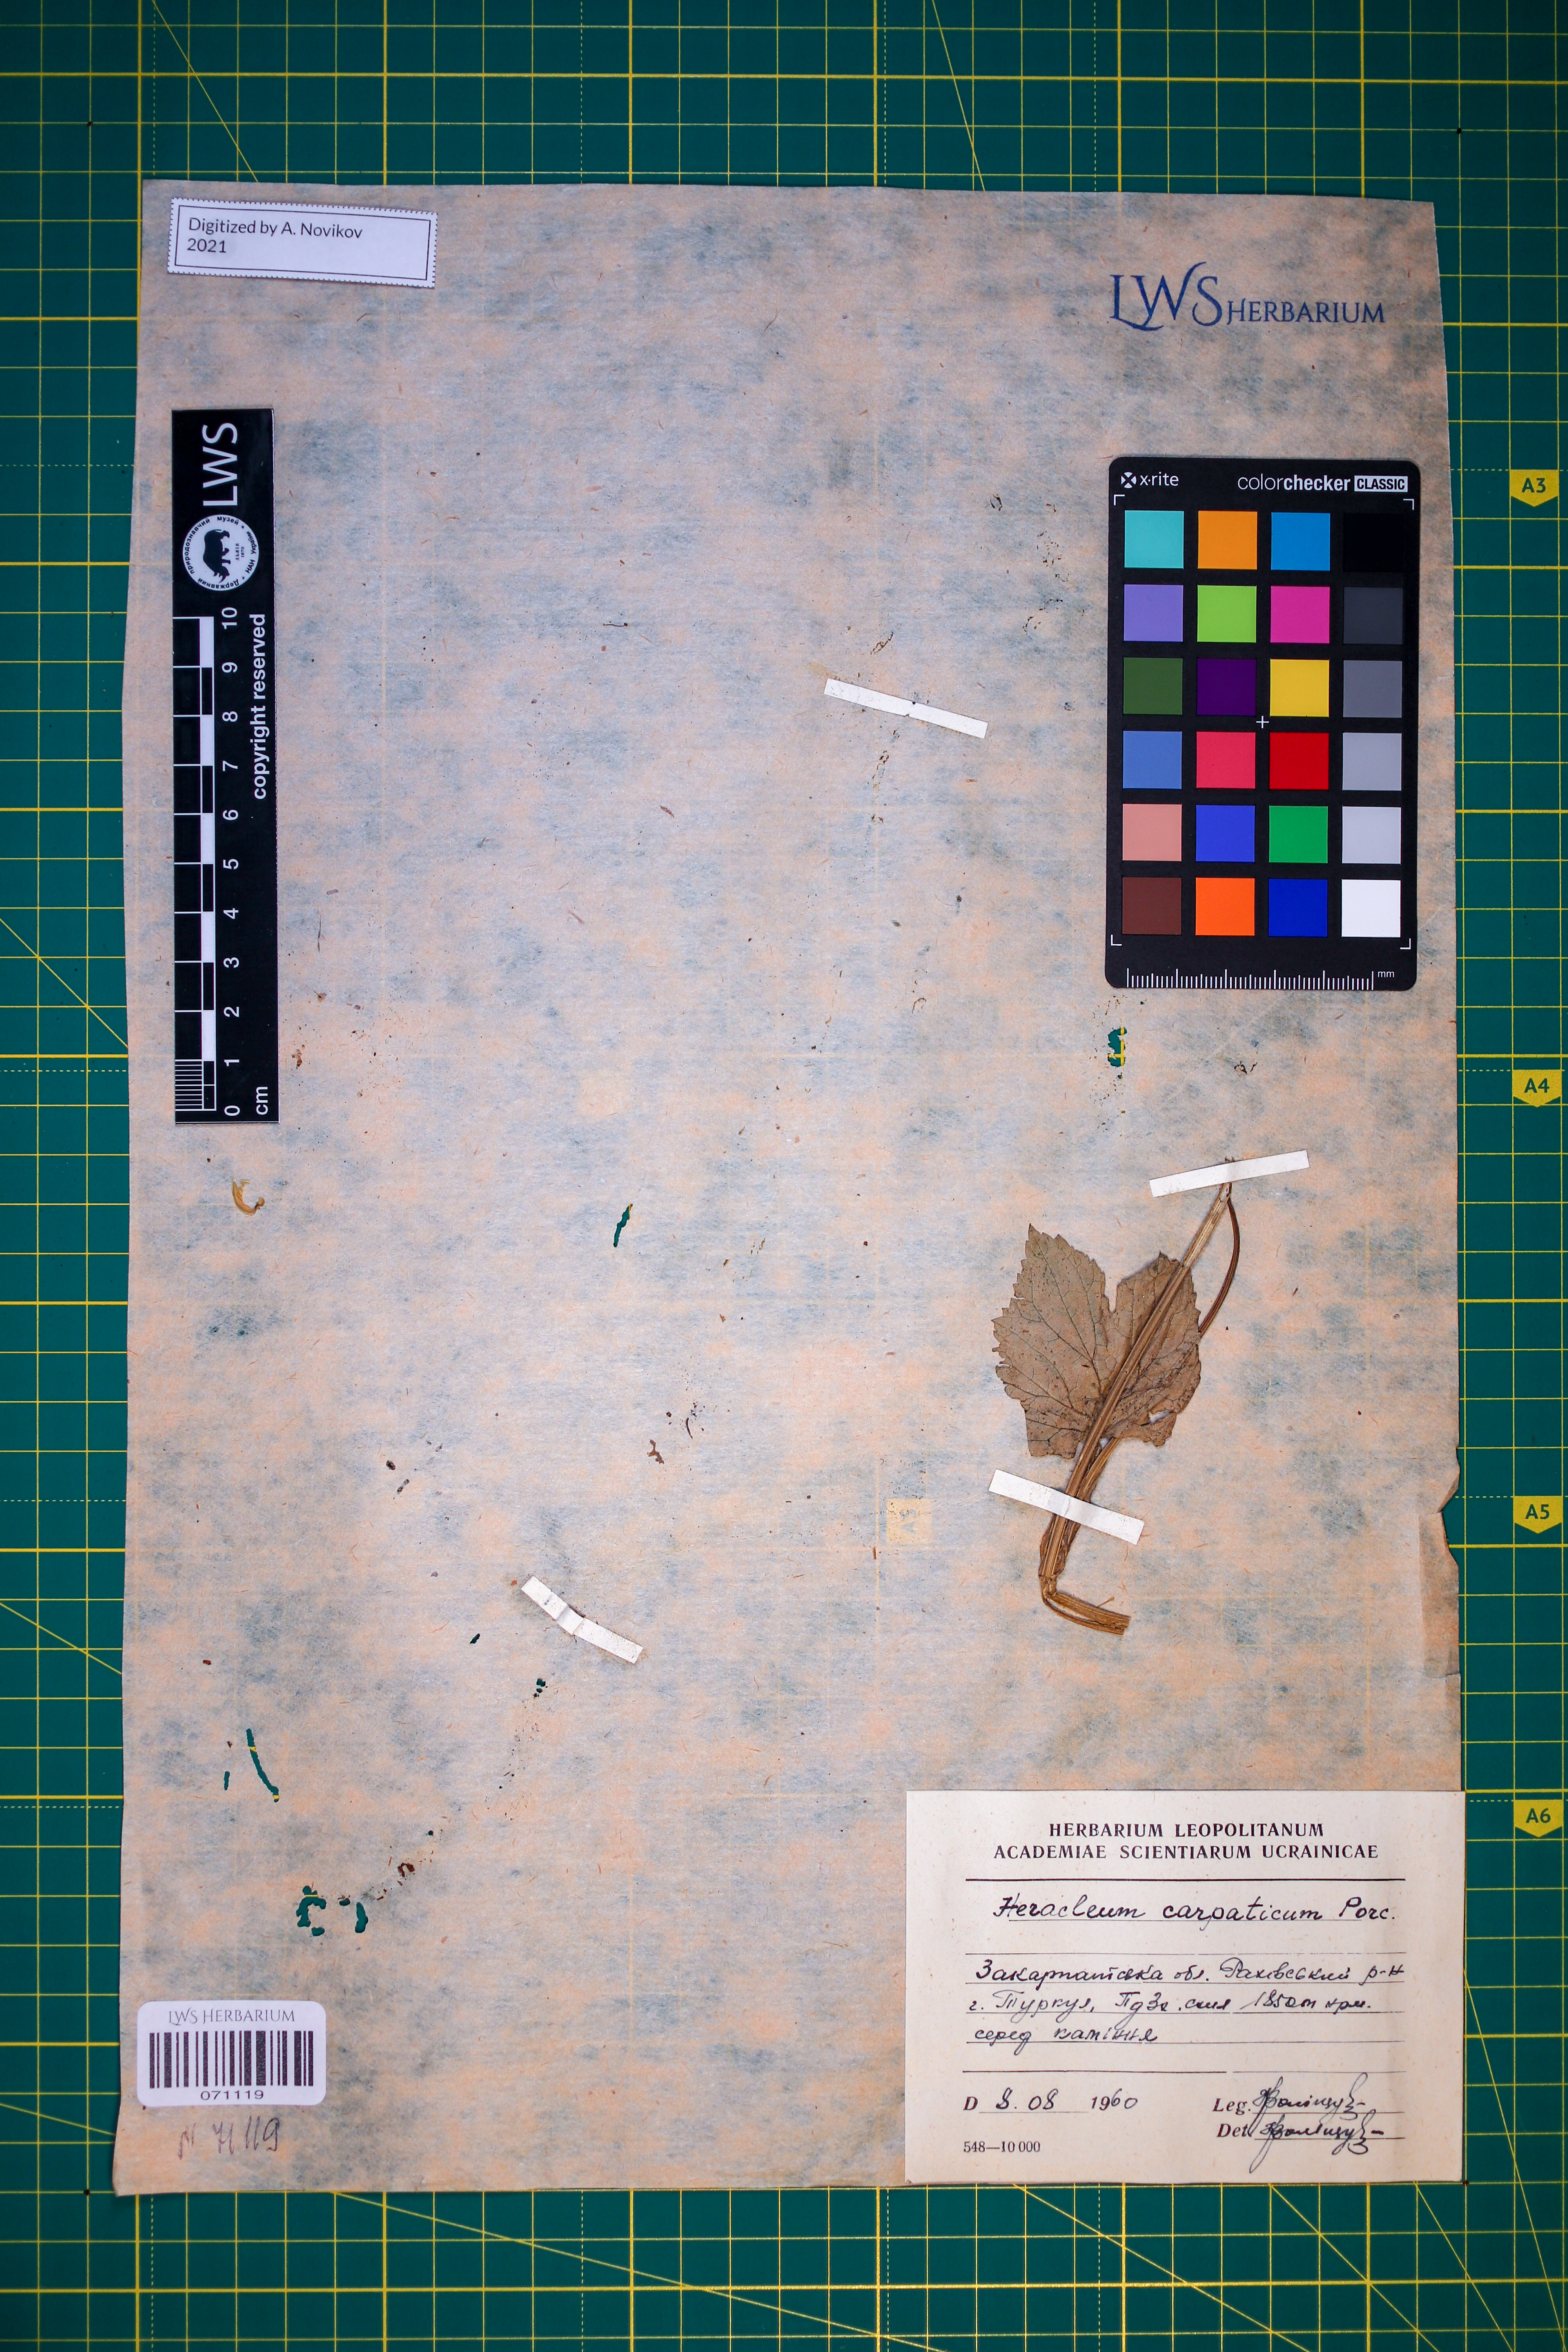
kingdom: Plantae
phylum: Tracheophyta
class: Magnoliopsida
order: Apiales
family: Apiaceae
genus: Heracleum
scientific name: Heracleum carpaticum
